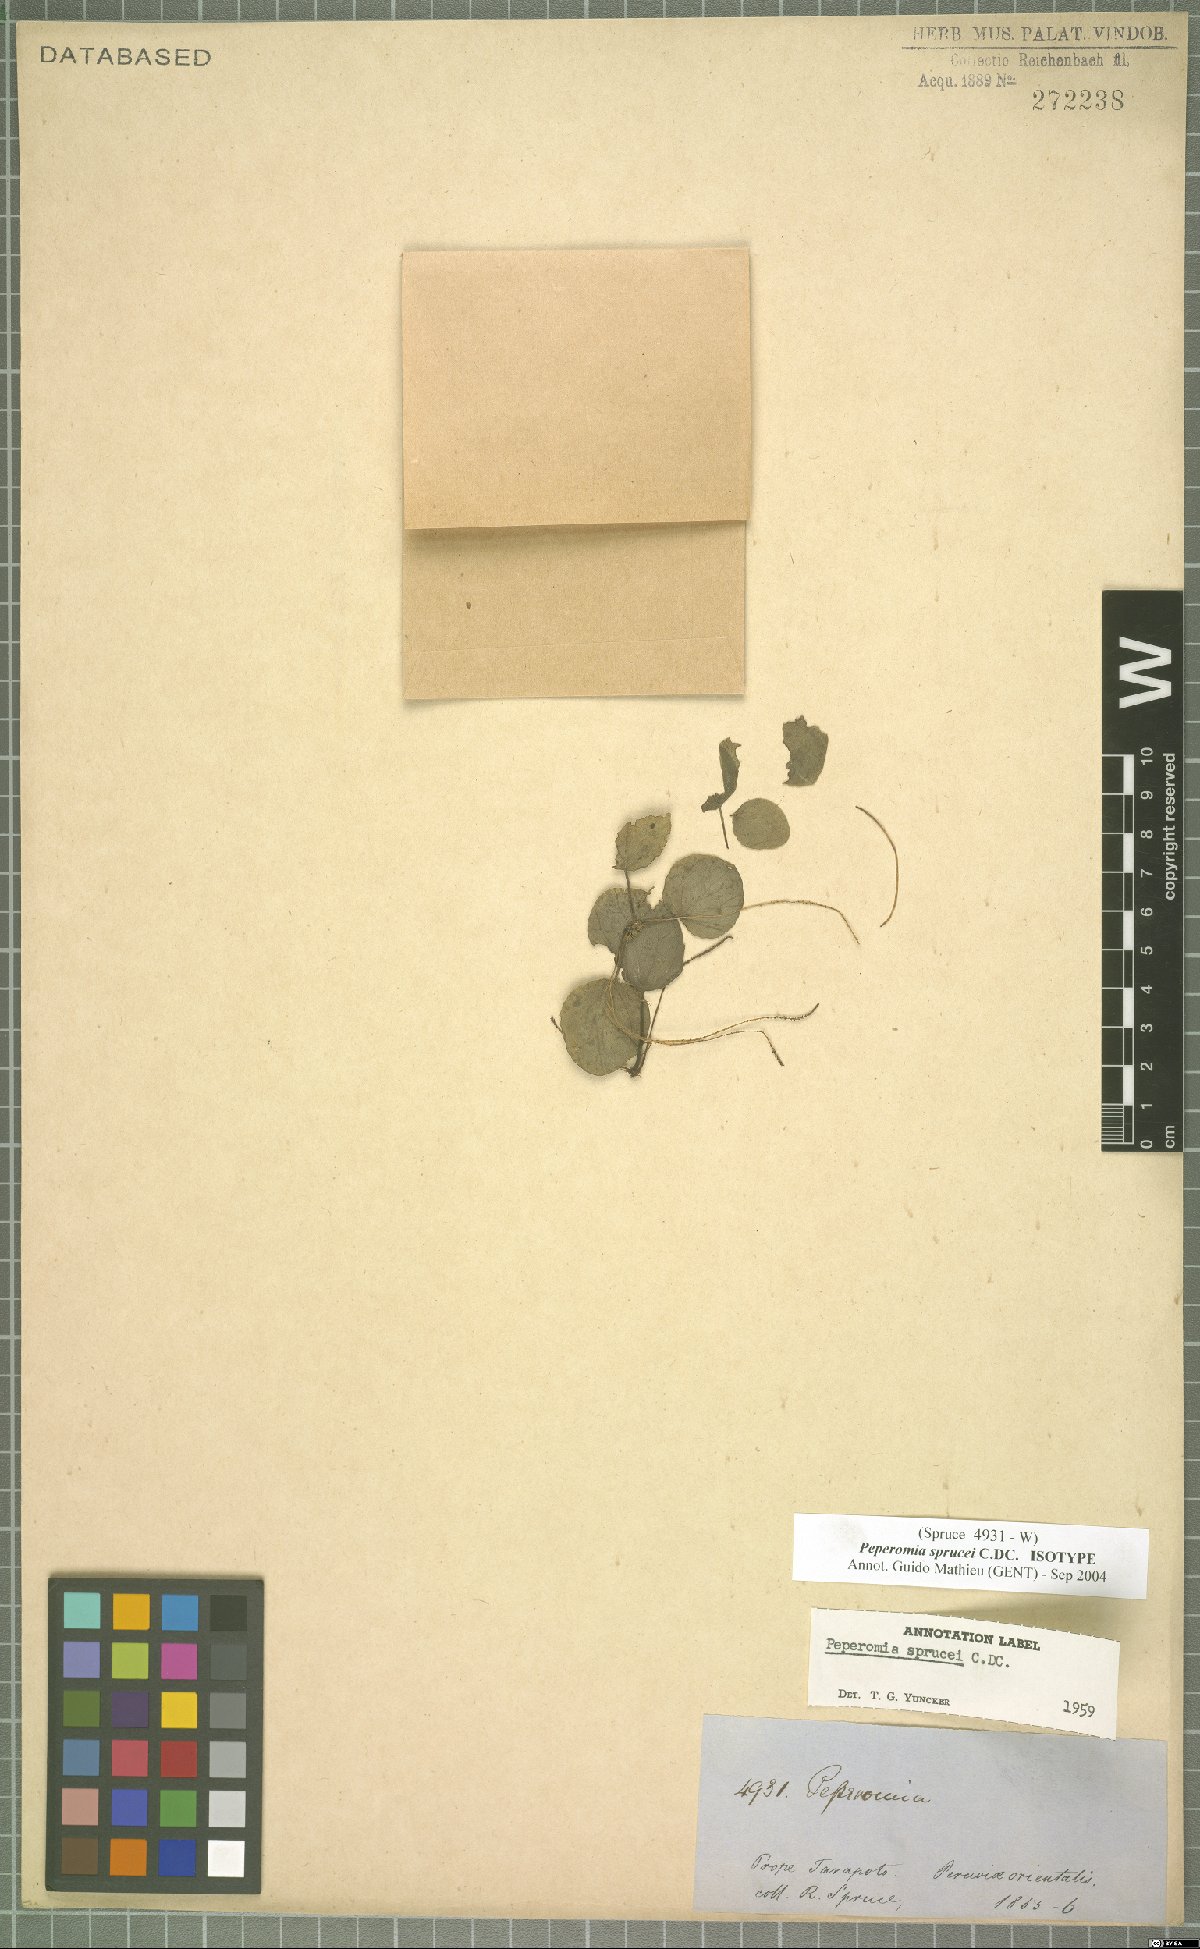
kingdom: Plantae
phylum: Tracheophyta
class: Magnoliopsida
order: Piperales
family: Piperaceae
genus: Peperomia
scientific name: Peperomia sprucei
